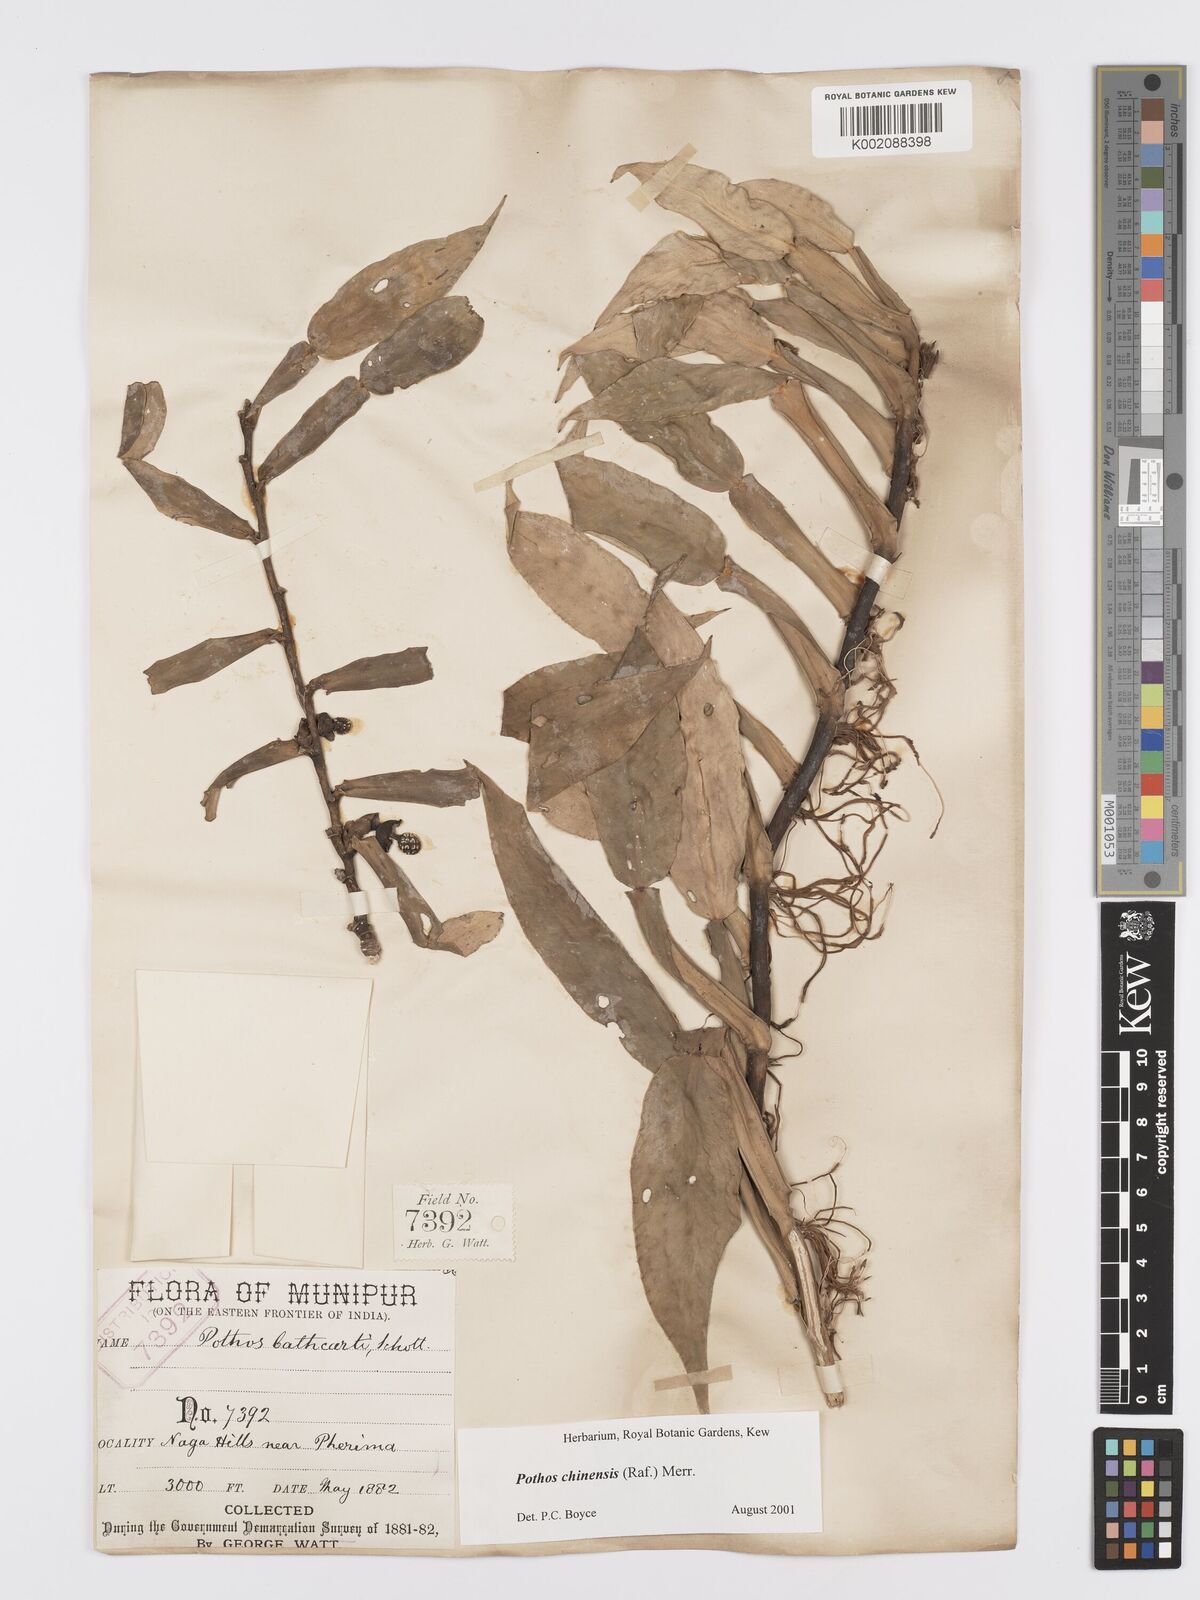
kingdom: Plantae
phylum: Tracheophyta
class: Liliopsida
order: Alismatales
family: Araceae
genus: Pothos
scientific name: Pothos chinensis
